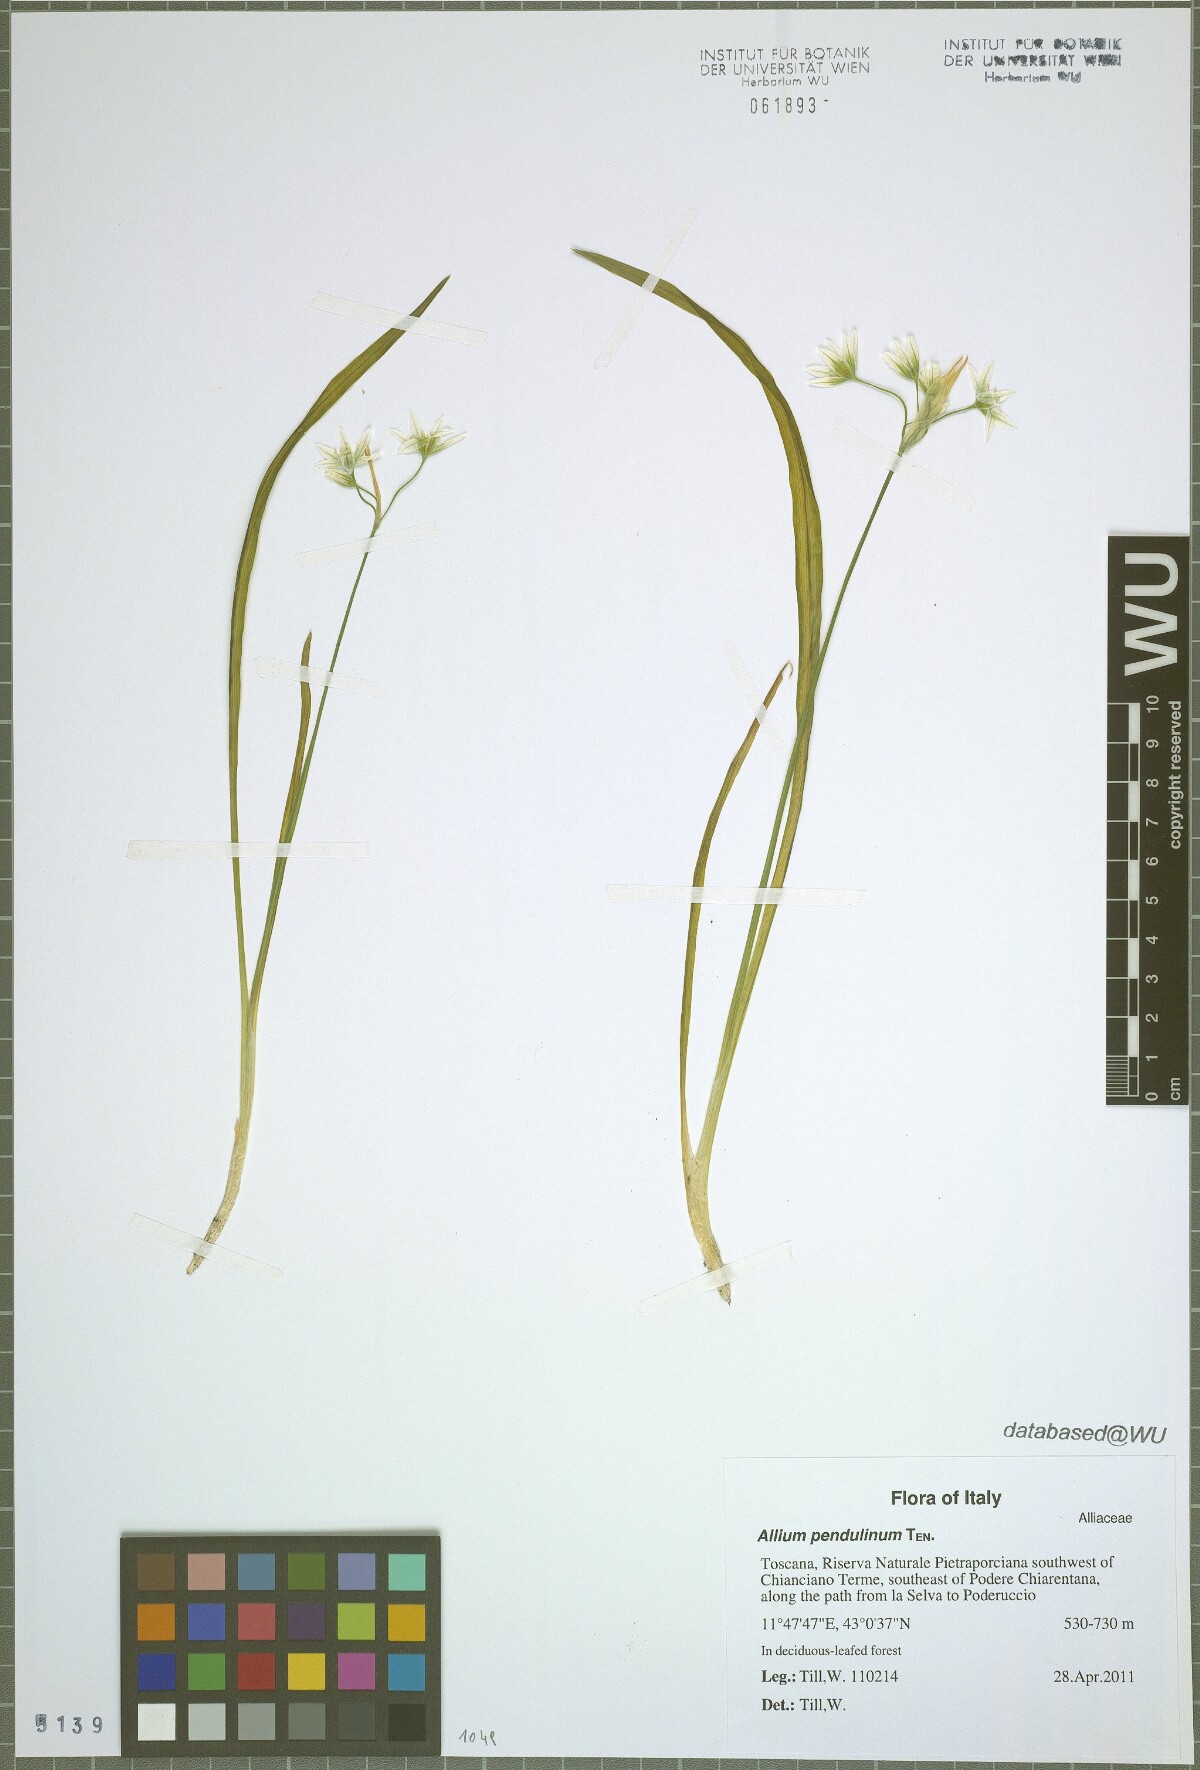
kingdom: Plantae
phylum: Tracheophyta
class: Liliopsida
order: Asparagales
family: Amaryllidaceae
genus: Allium
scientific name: Allium pendulinum
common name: Italian garlic
